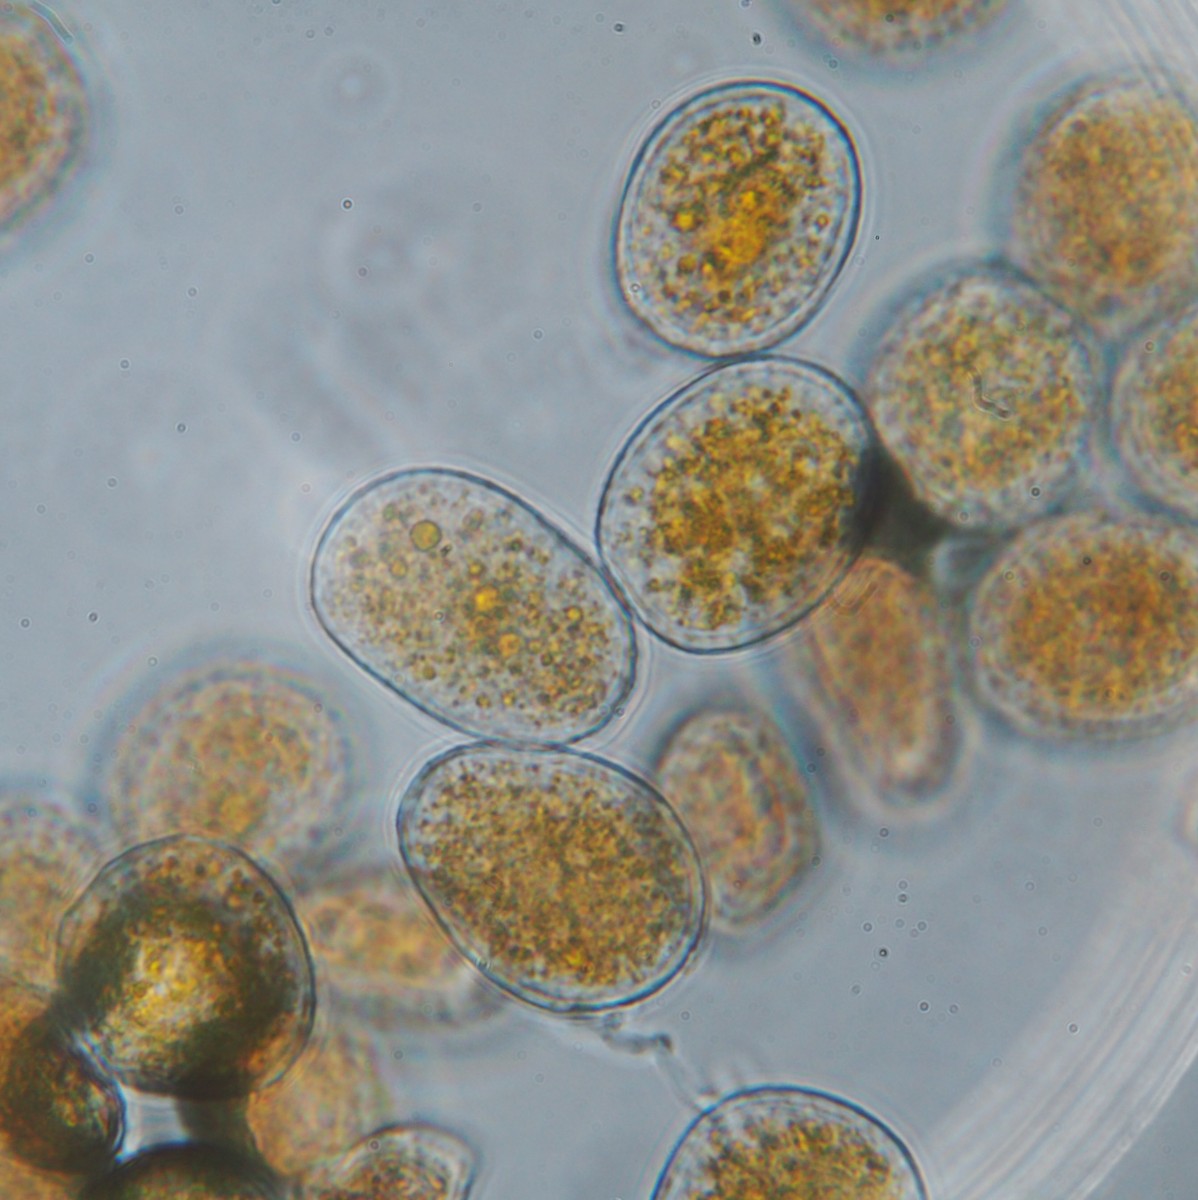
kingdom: Fungi
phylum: Basidiomycota
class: Pucciniomycetes
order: Pucciniales
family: Pucciniaceae
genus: Puccinia
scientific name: Puccinia festucae
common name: gedeblad-tvecellerust
